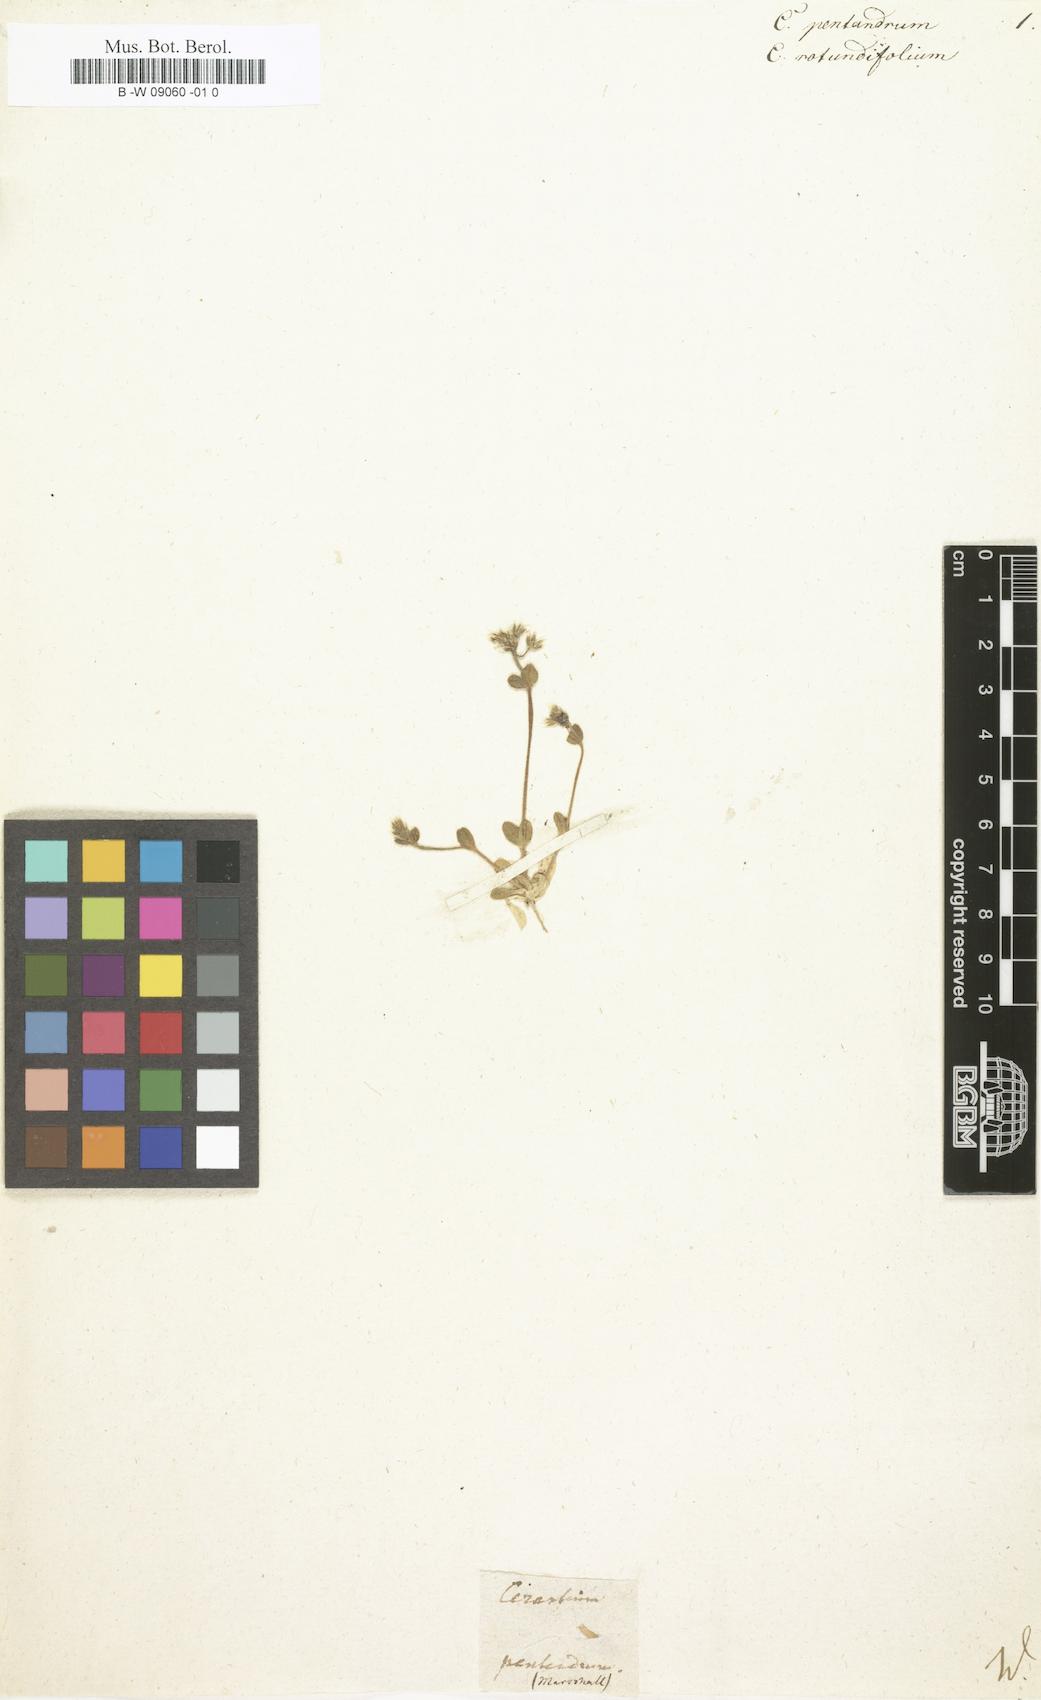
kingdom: Plantae
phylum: Tracheophyta
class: Magnoliopsida
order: Caryophyllales
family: Caryophyllaceae
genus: Cerastium
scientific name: Cerastium semidecandrum
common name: Little mouse-ear
